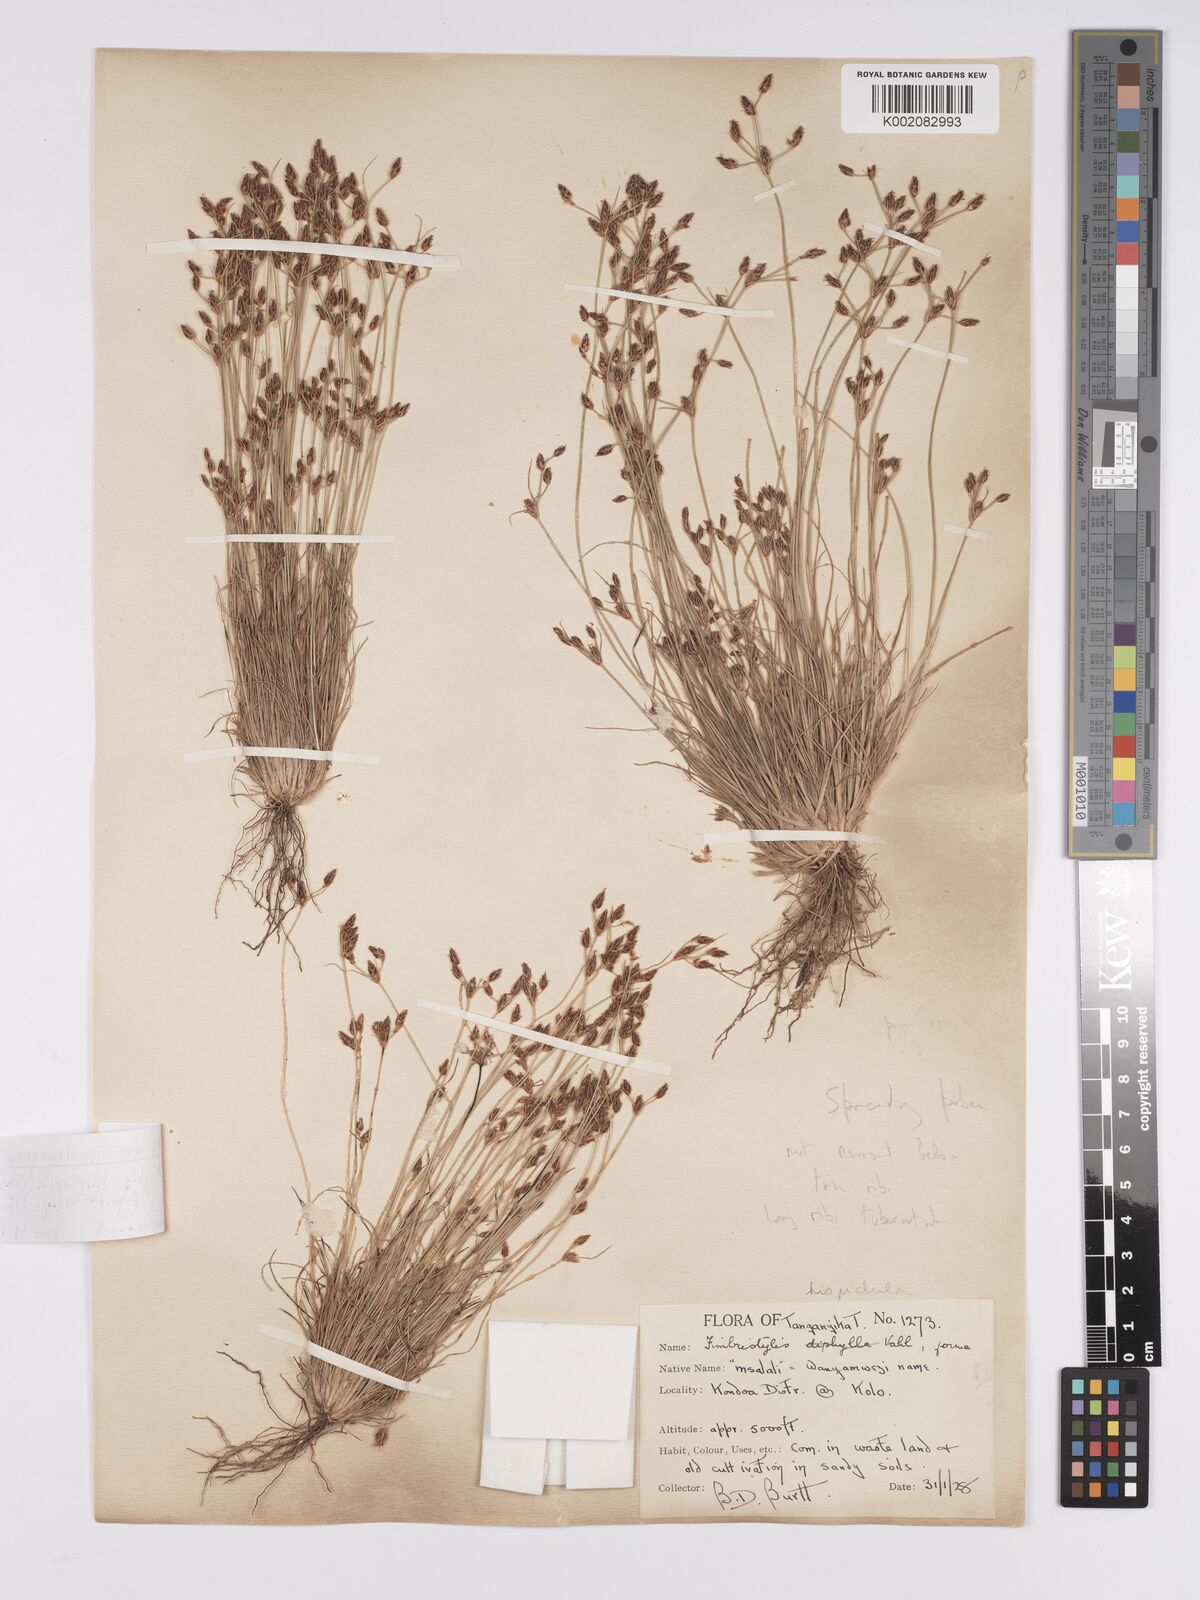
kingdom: Plantae
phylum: Tracheophyta
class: Liliopsida
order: Poales
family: Cyperaceae
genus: Bulbostylis
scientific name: Bulbostylis hispidula
